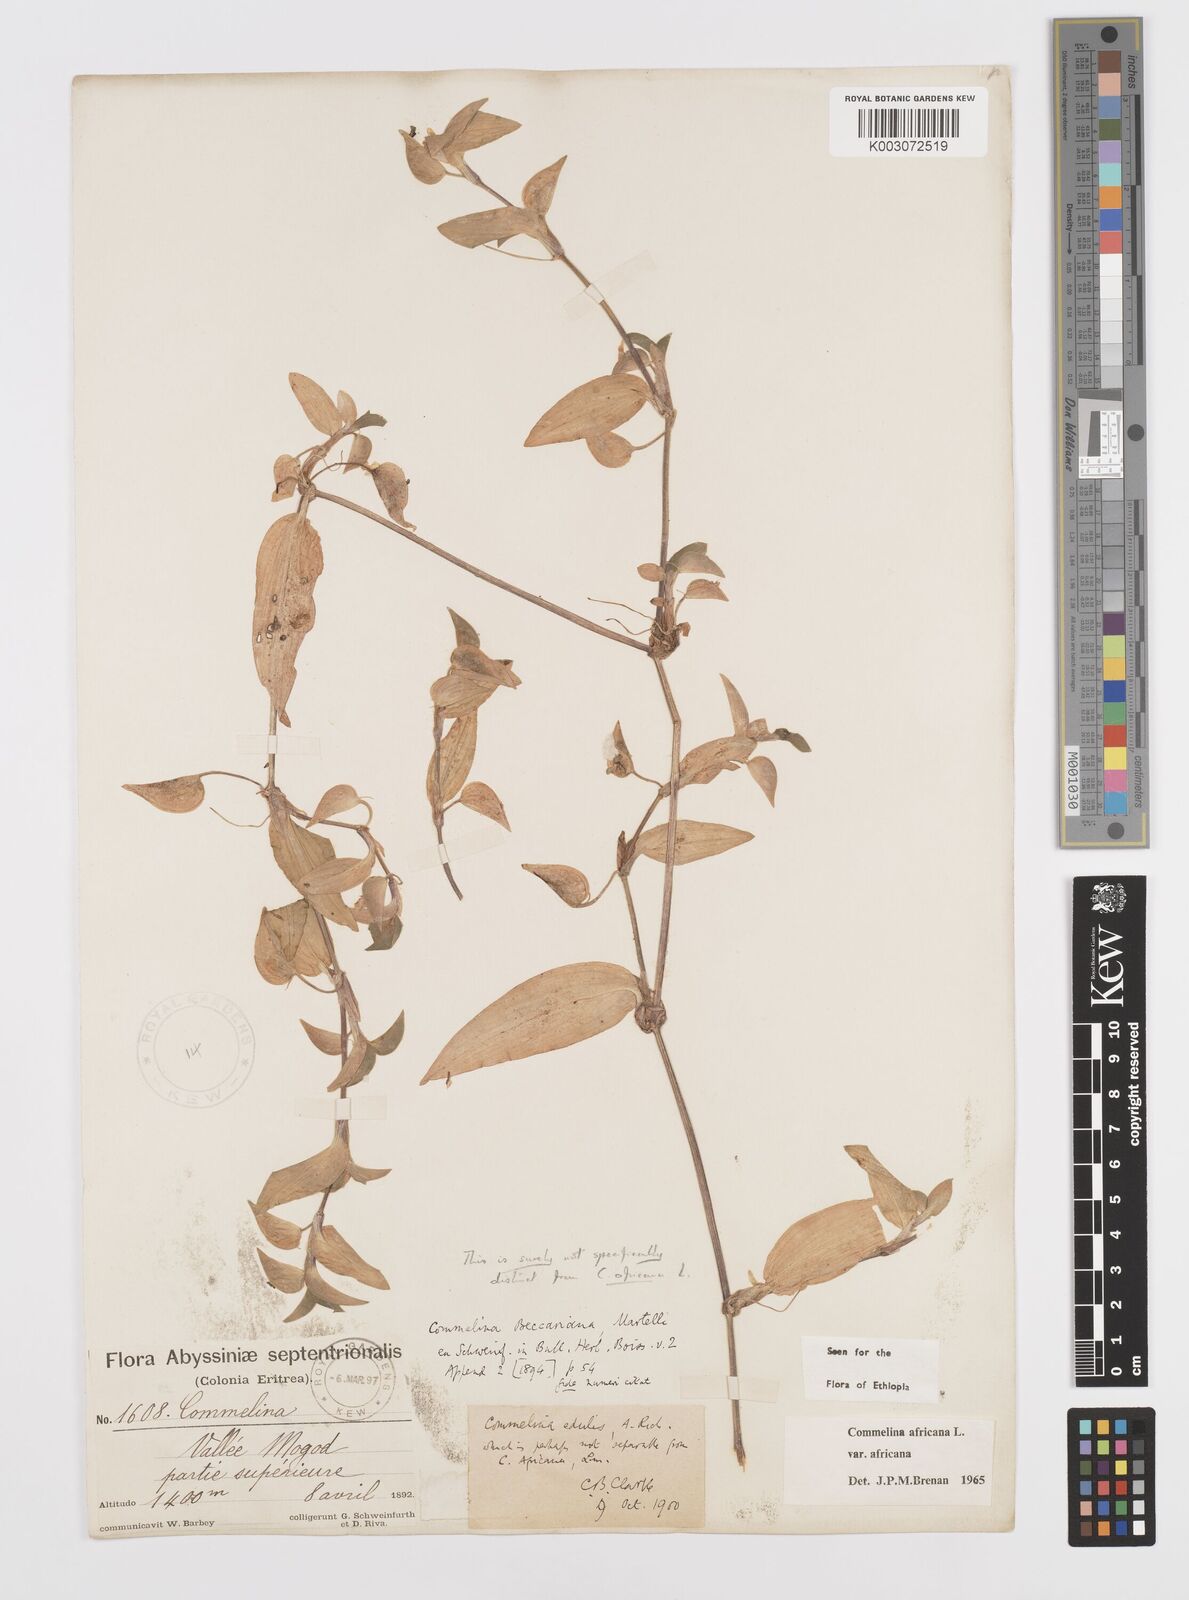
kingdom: Plantae
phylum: Tracheophyta
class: Liliopsida
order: Commelinales
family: Commelinaceae
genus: Commelina
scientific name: Commelina africana
